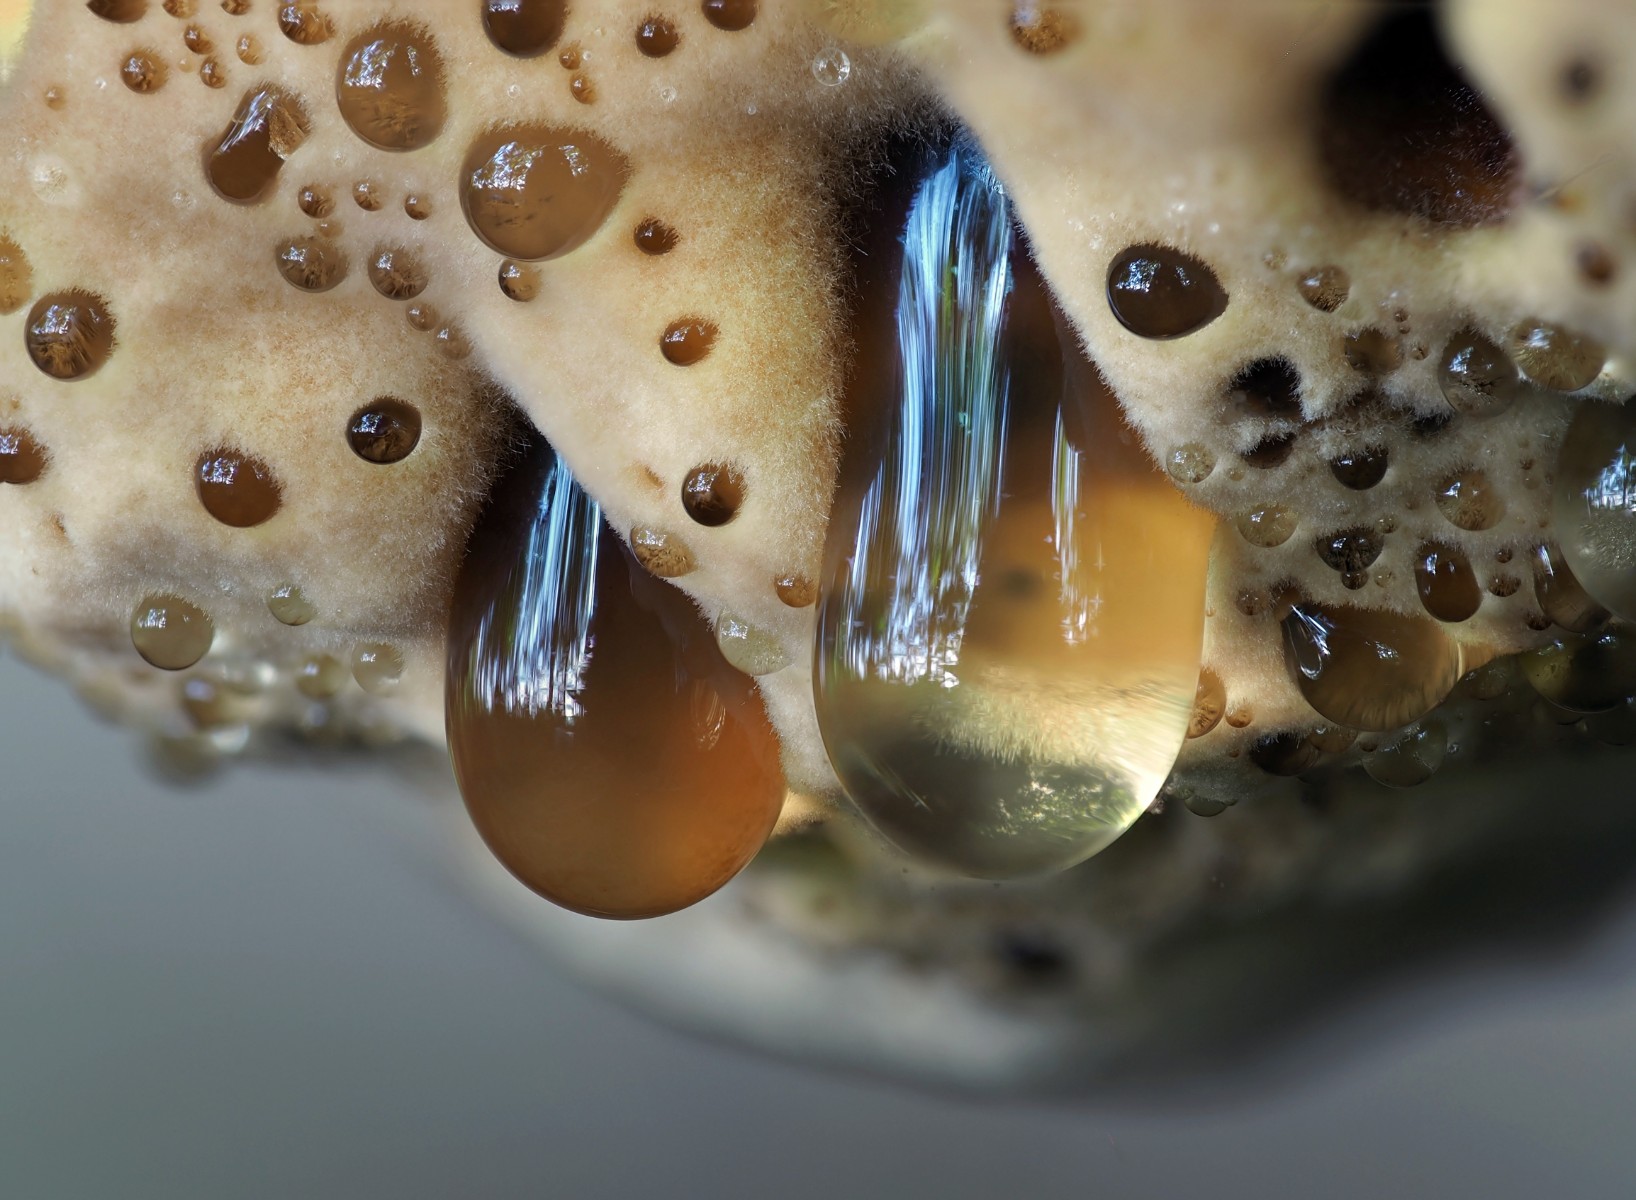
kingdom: Fungi
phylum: Basidiomycota
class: Agaricomycetes
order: Hymenochaetales
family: Hymenochaetaceae
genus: Pseudoinonotus
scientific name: Pseudoinonotus dryadeus
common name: ege-spejlporesvamp
